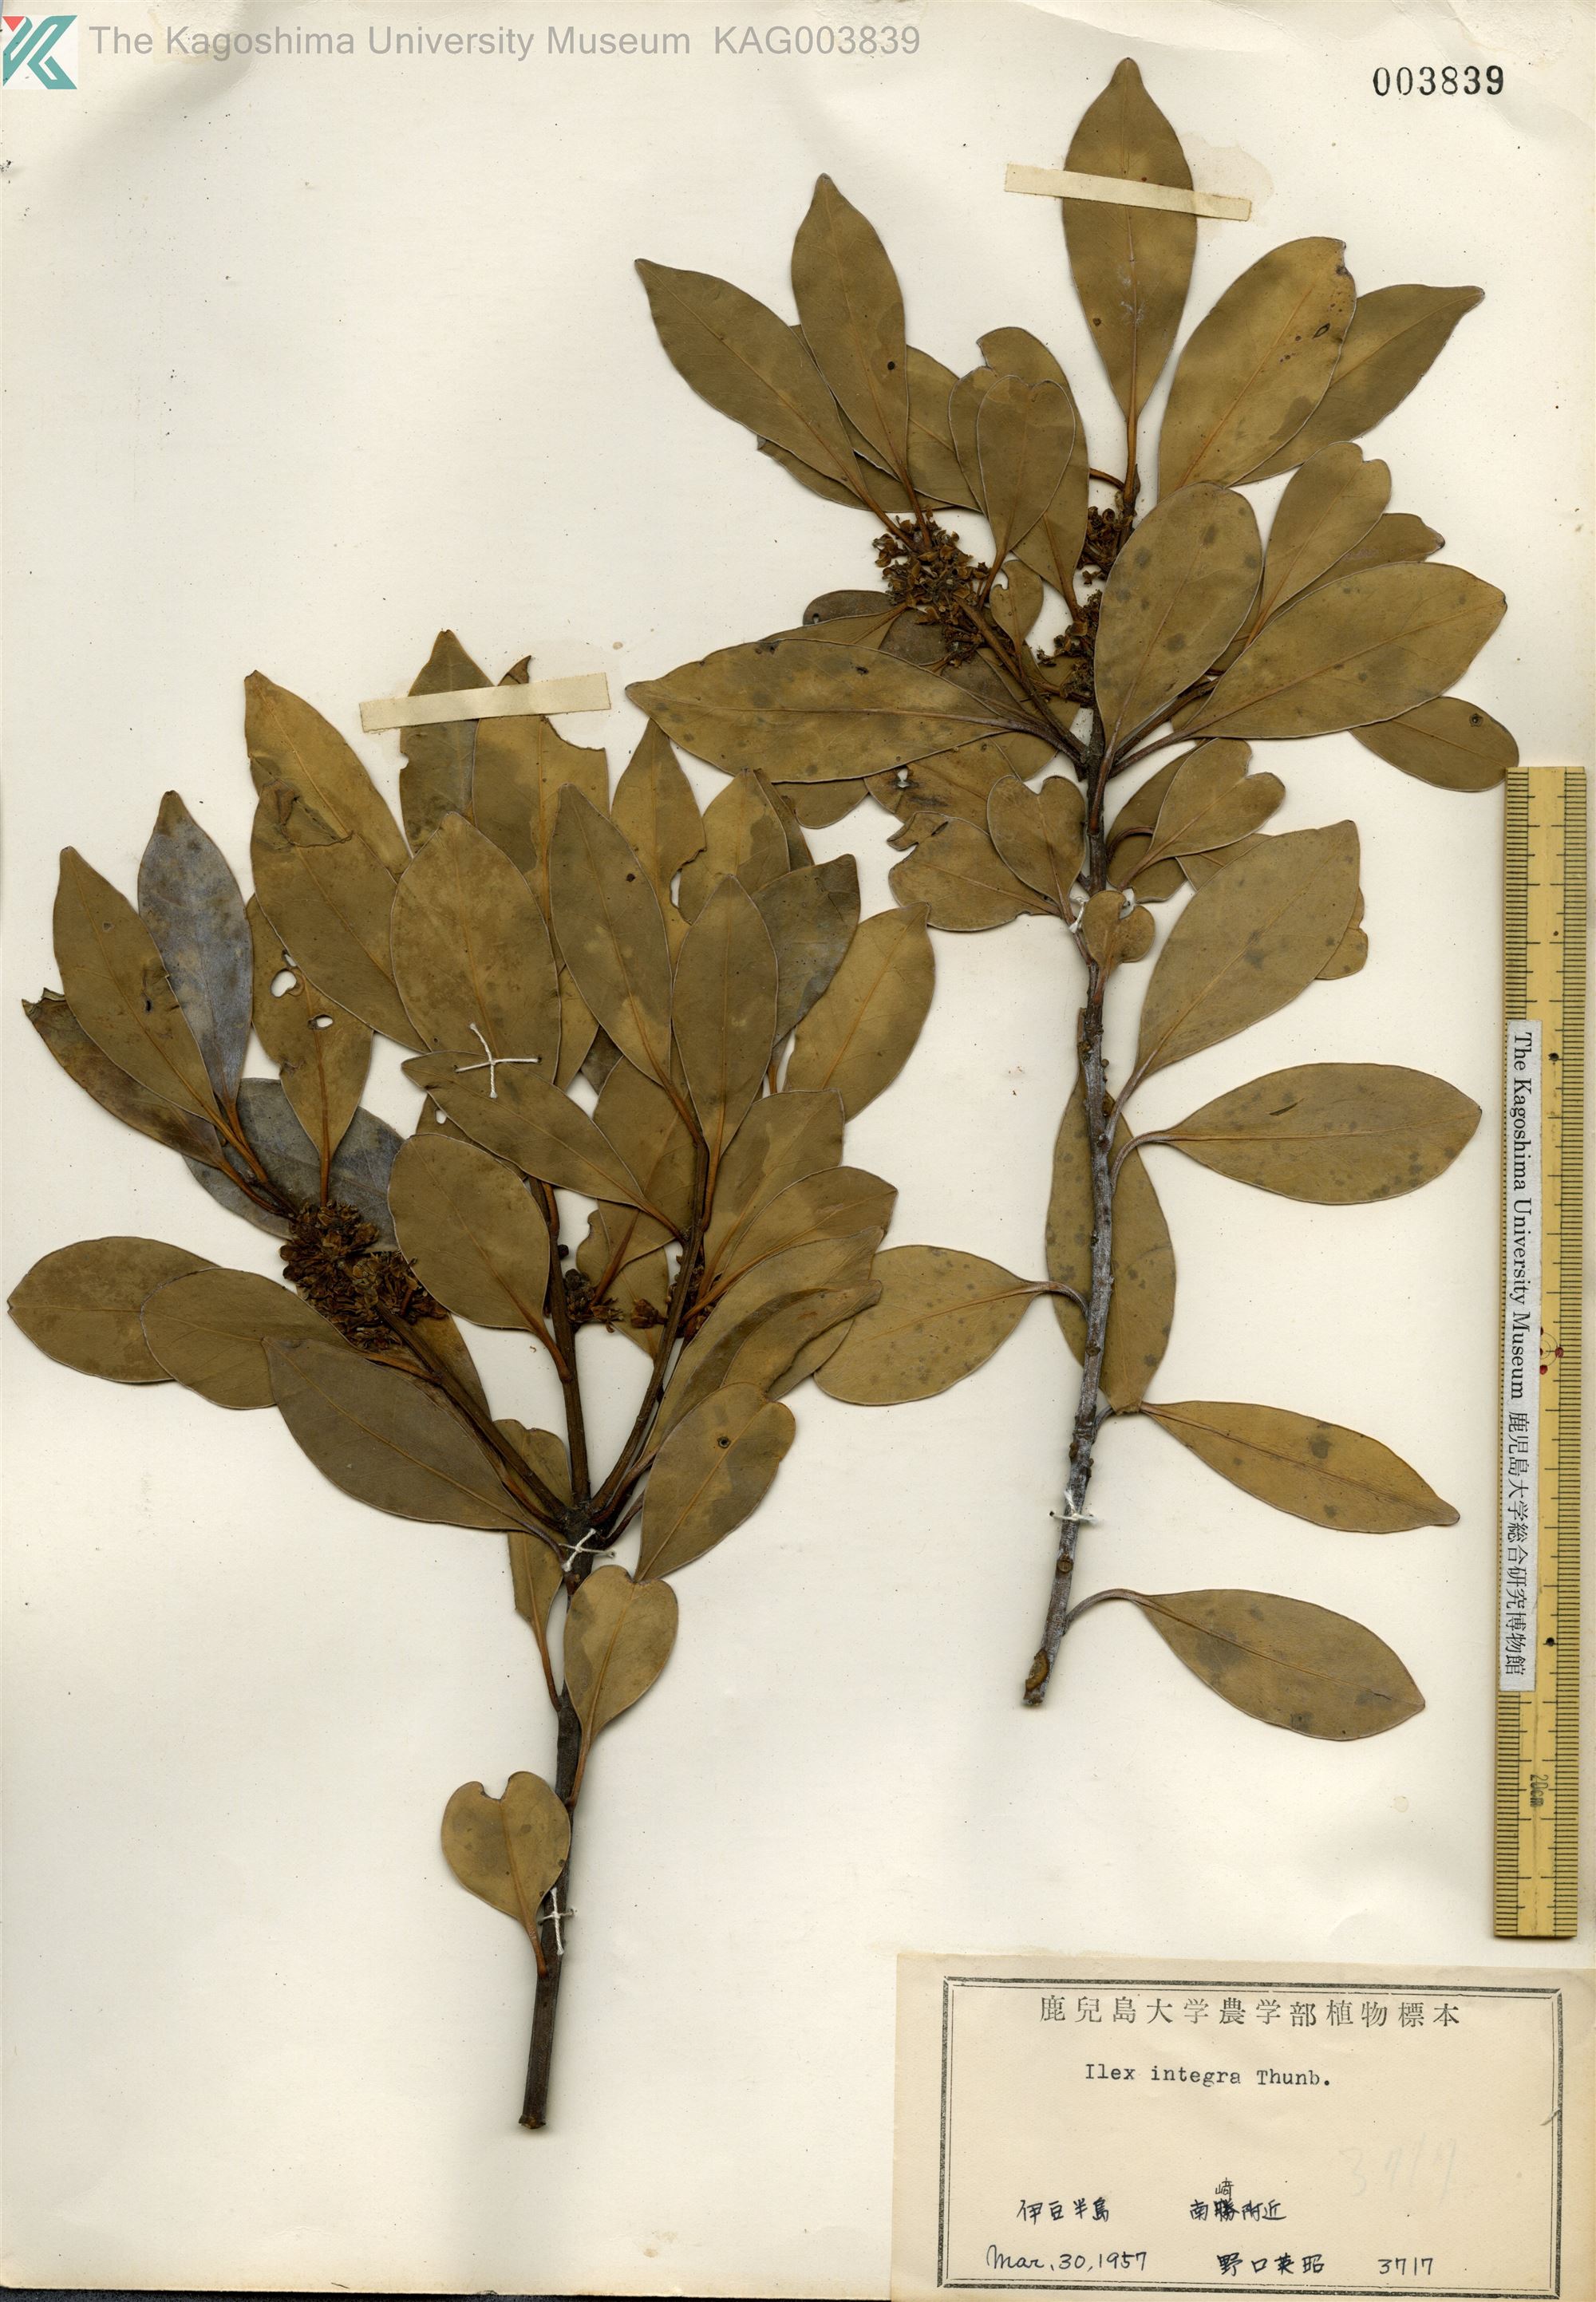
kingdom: Plantae
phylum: Tracheophyta
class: Magnoliopsida
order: Aquifoliales
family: Aquifoliaceae
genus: Ilex
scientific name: Ilex integra
